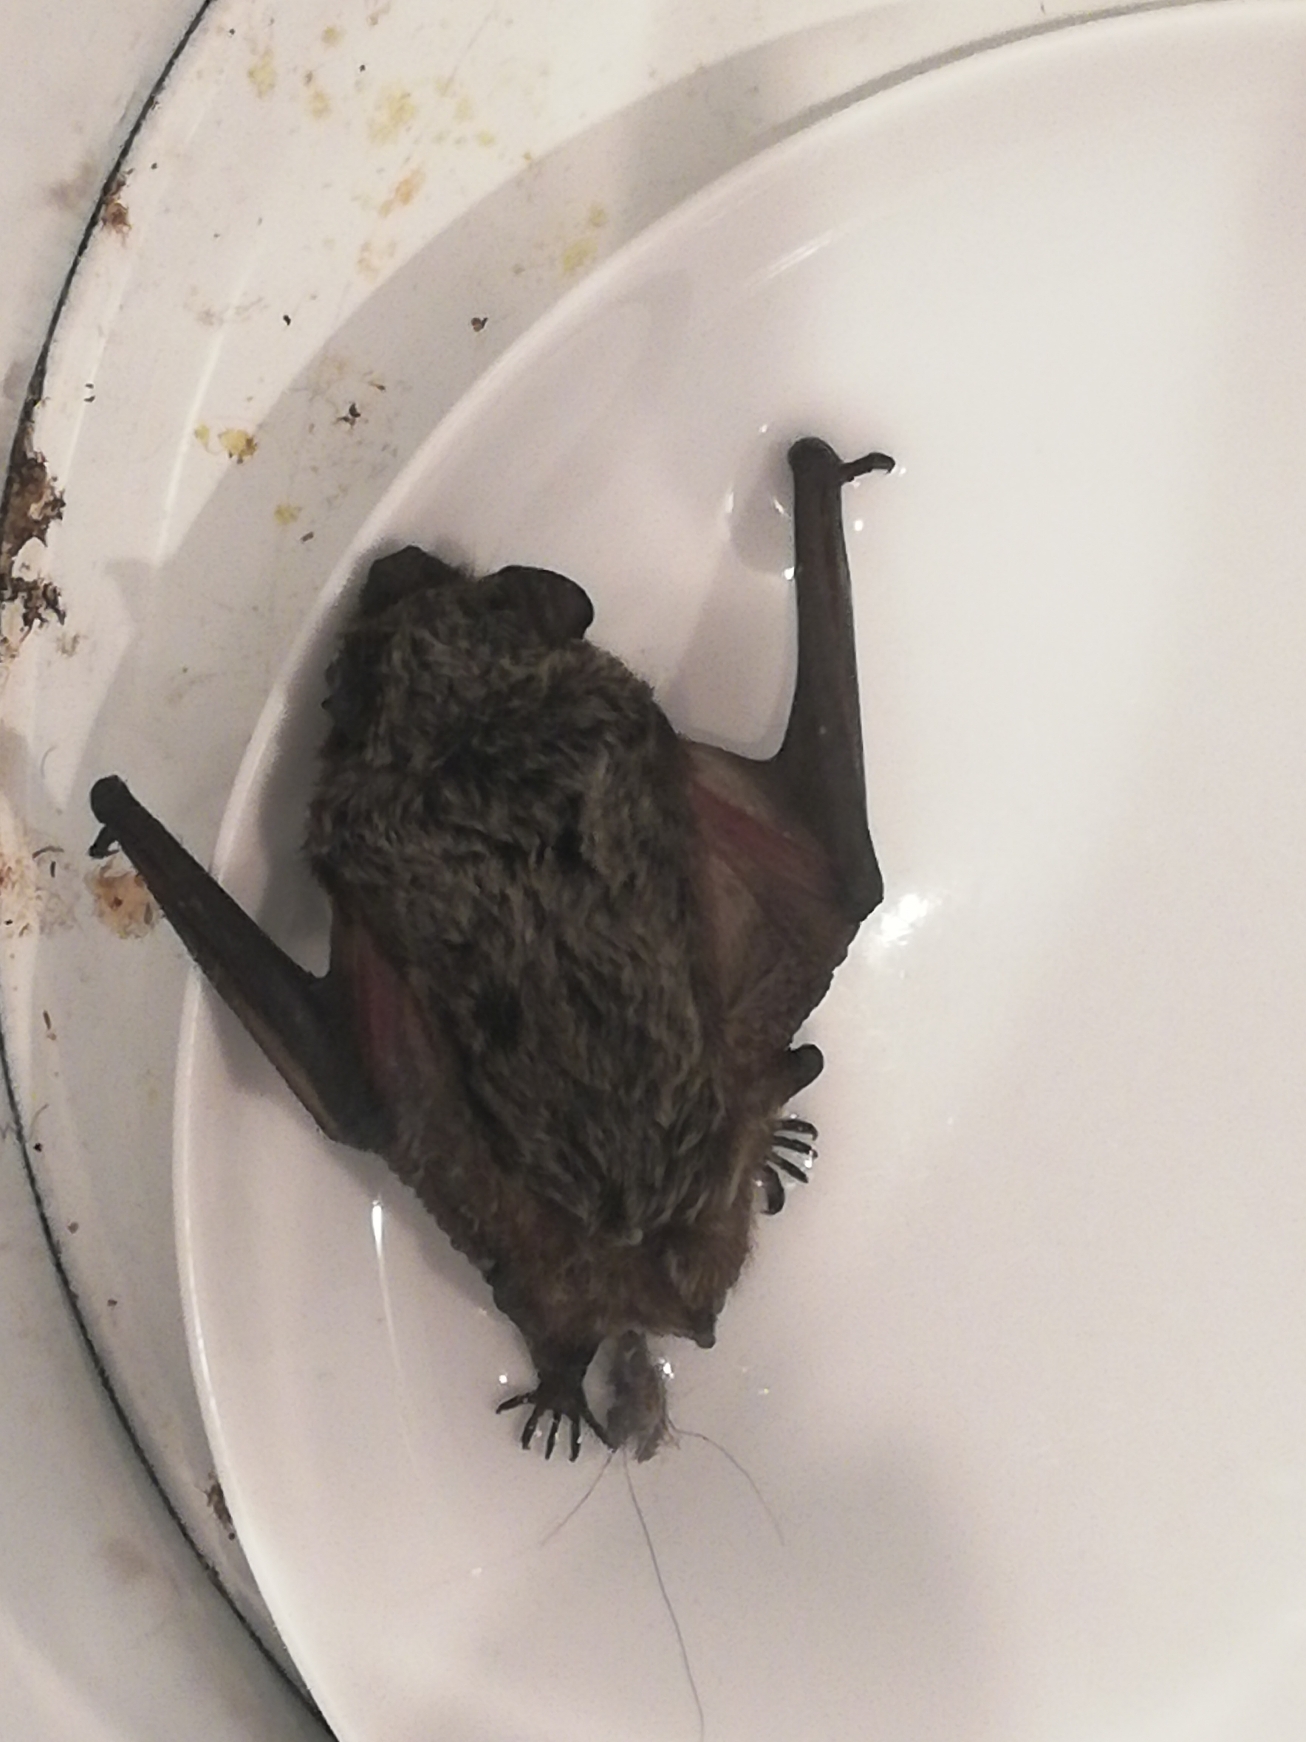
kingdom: Animalia
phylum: Chordata
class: Mammalia
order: Chiroptera
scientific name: Chiroptera
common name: Flagermus
